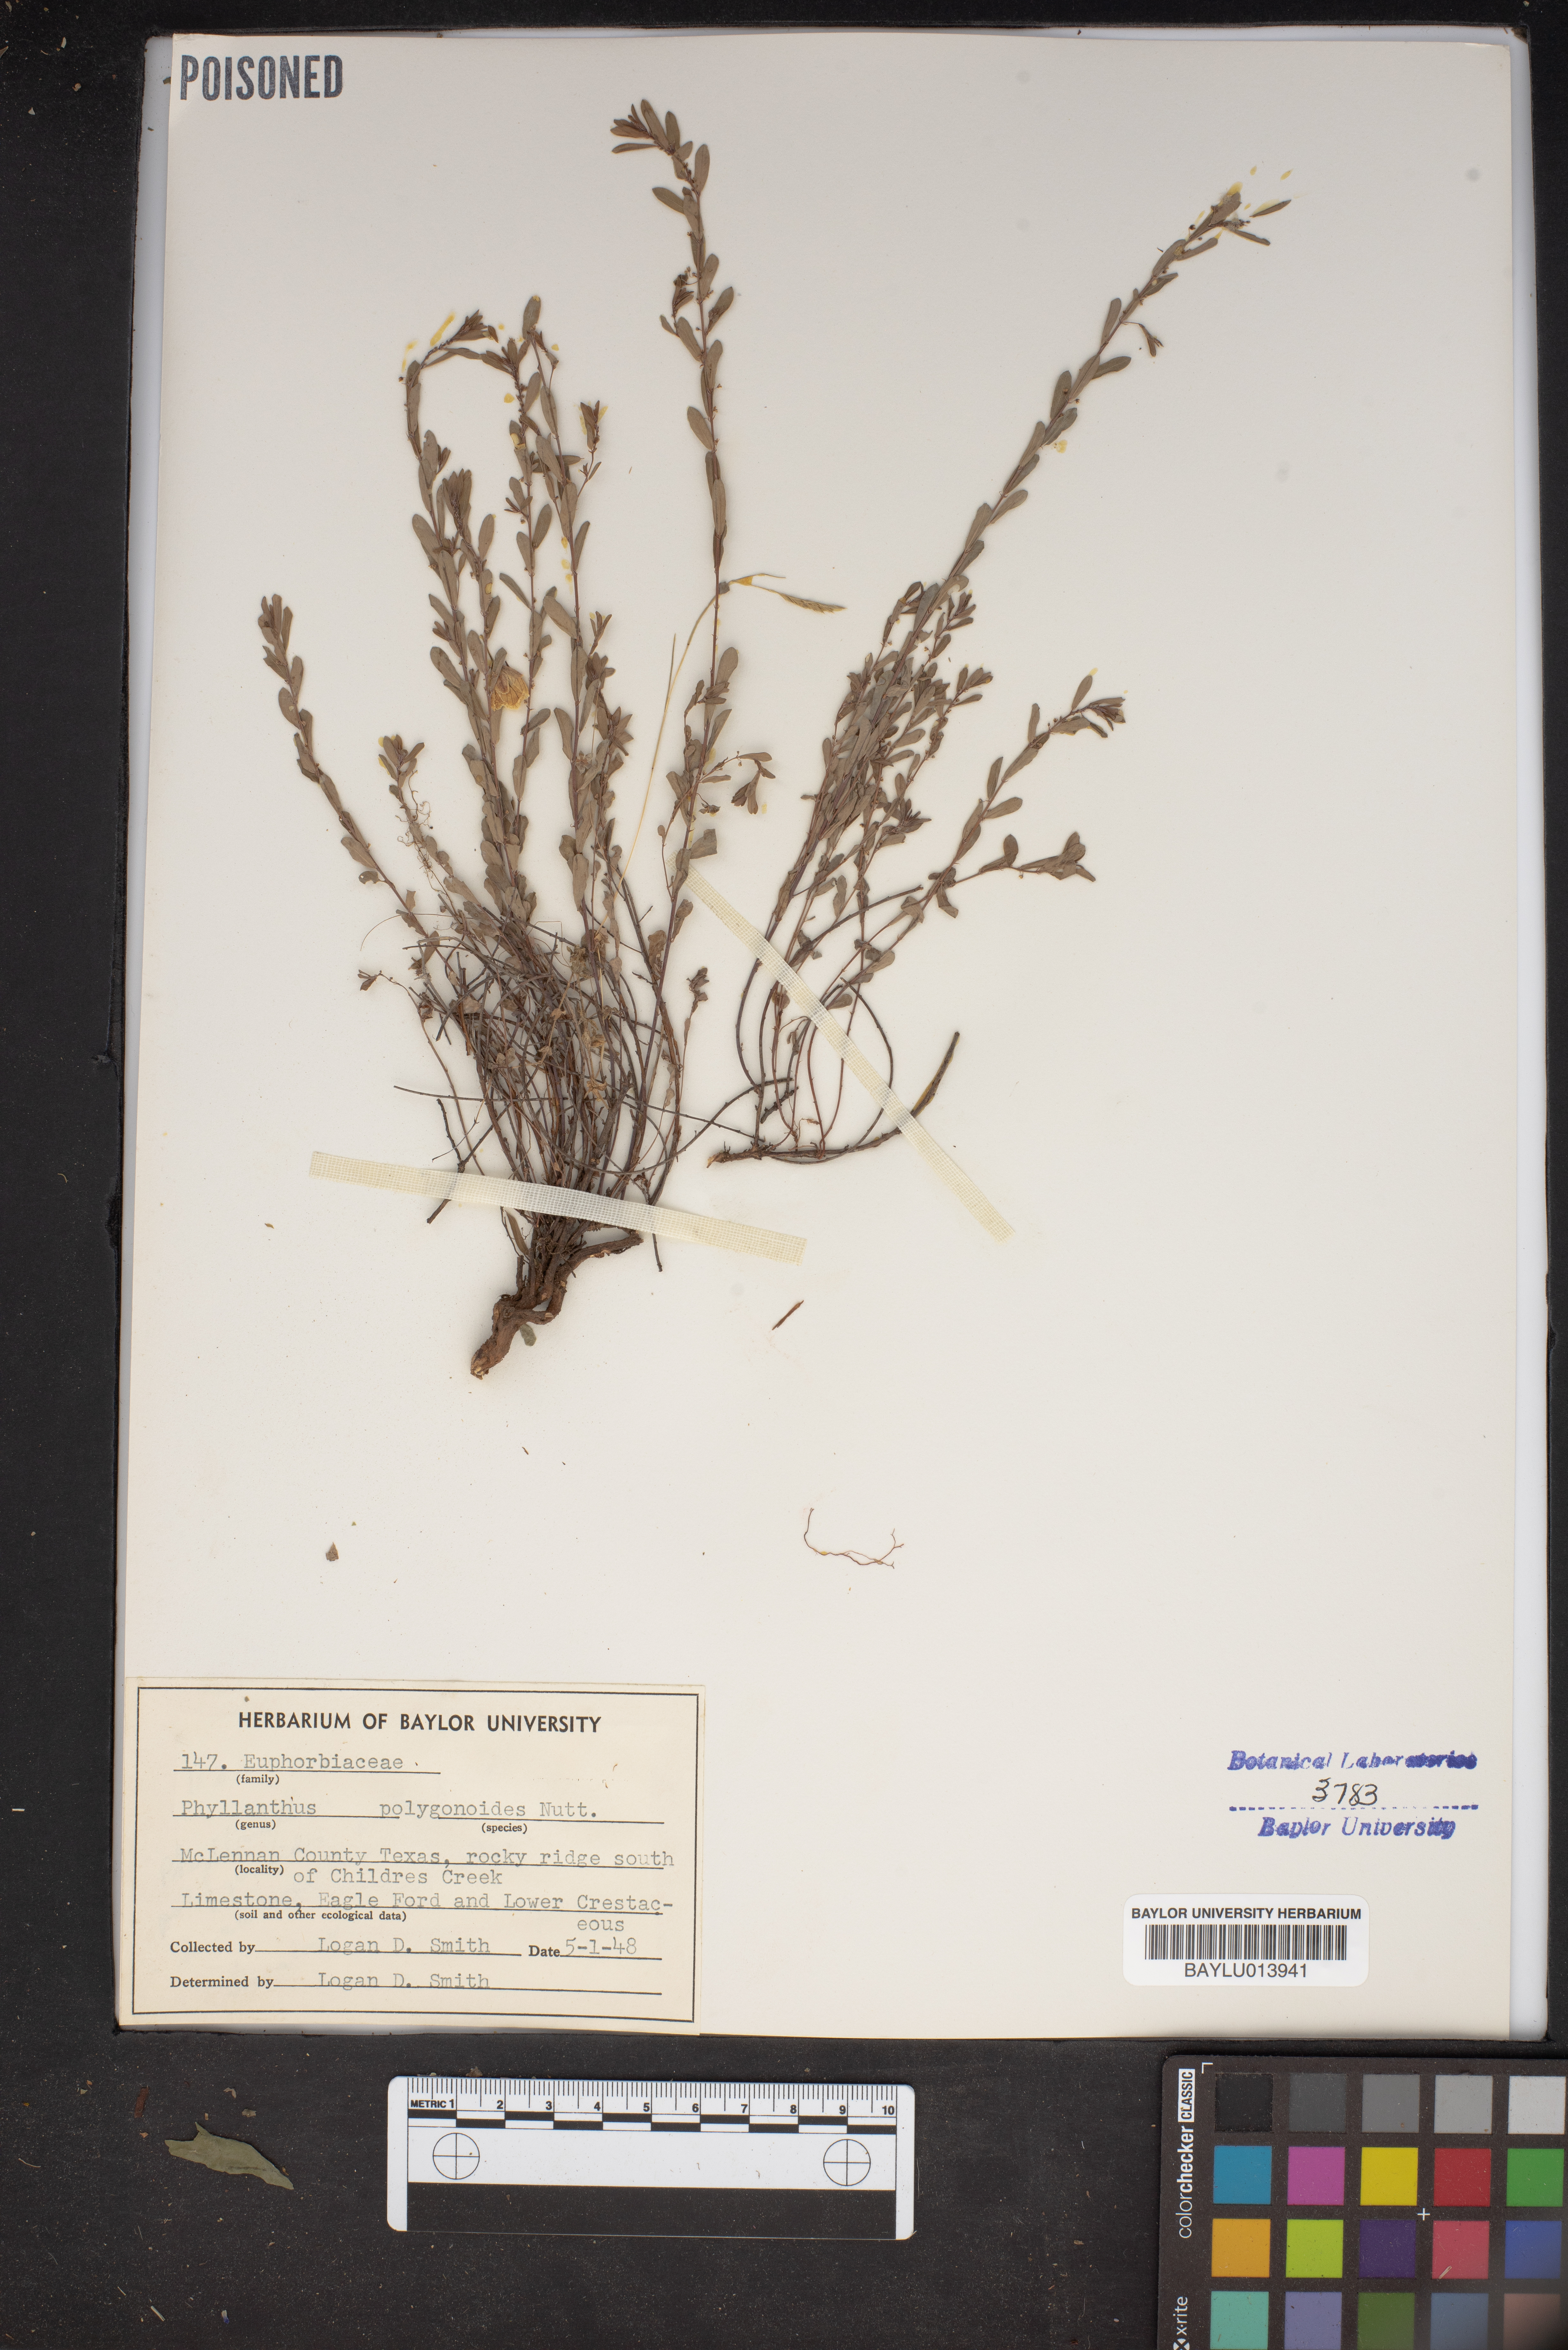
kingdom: Plantae
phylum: Tracheophyta
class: Magnoliopsida
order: Malpighiales
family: Phyllanthaceae
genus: Phyllanthus
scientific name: Phyllanthus polygonoides
